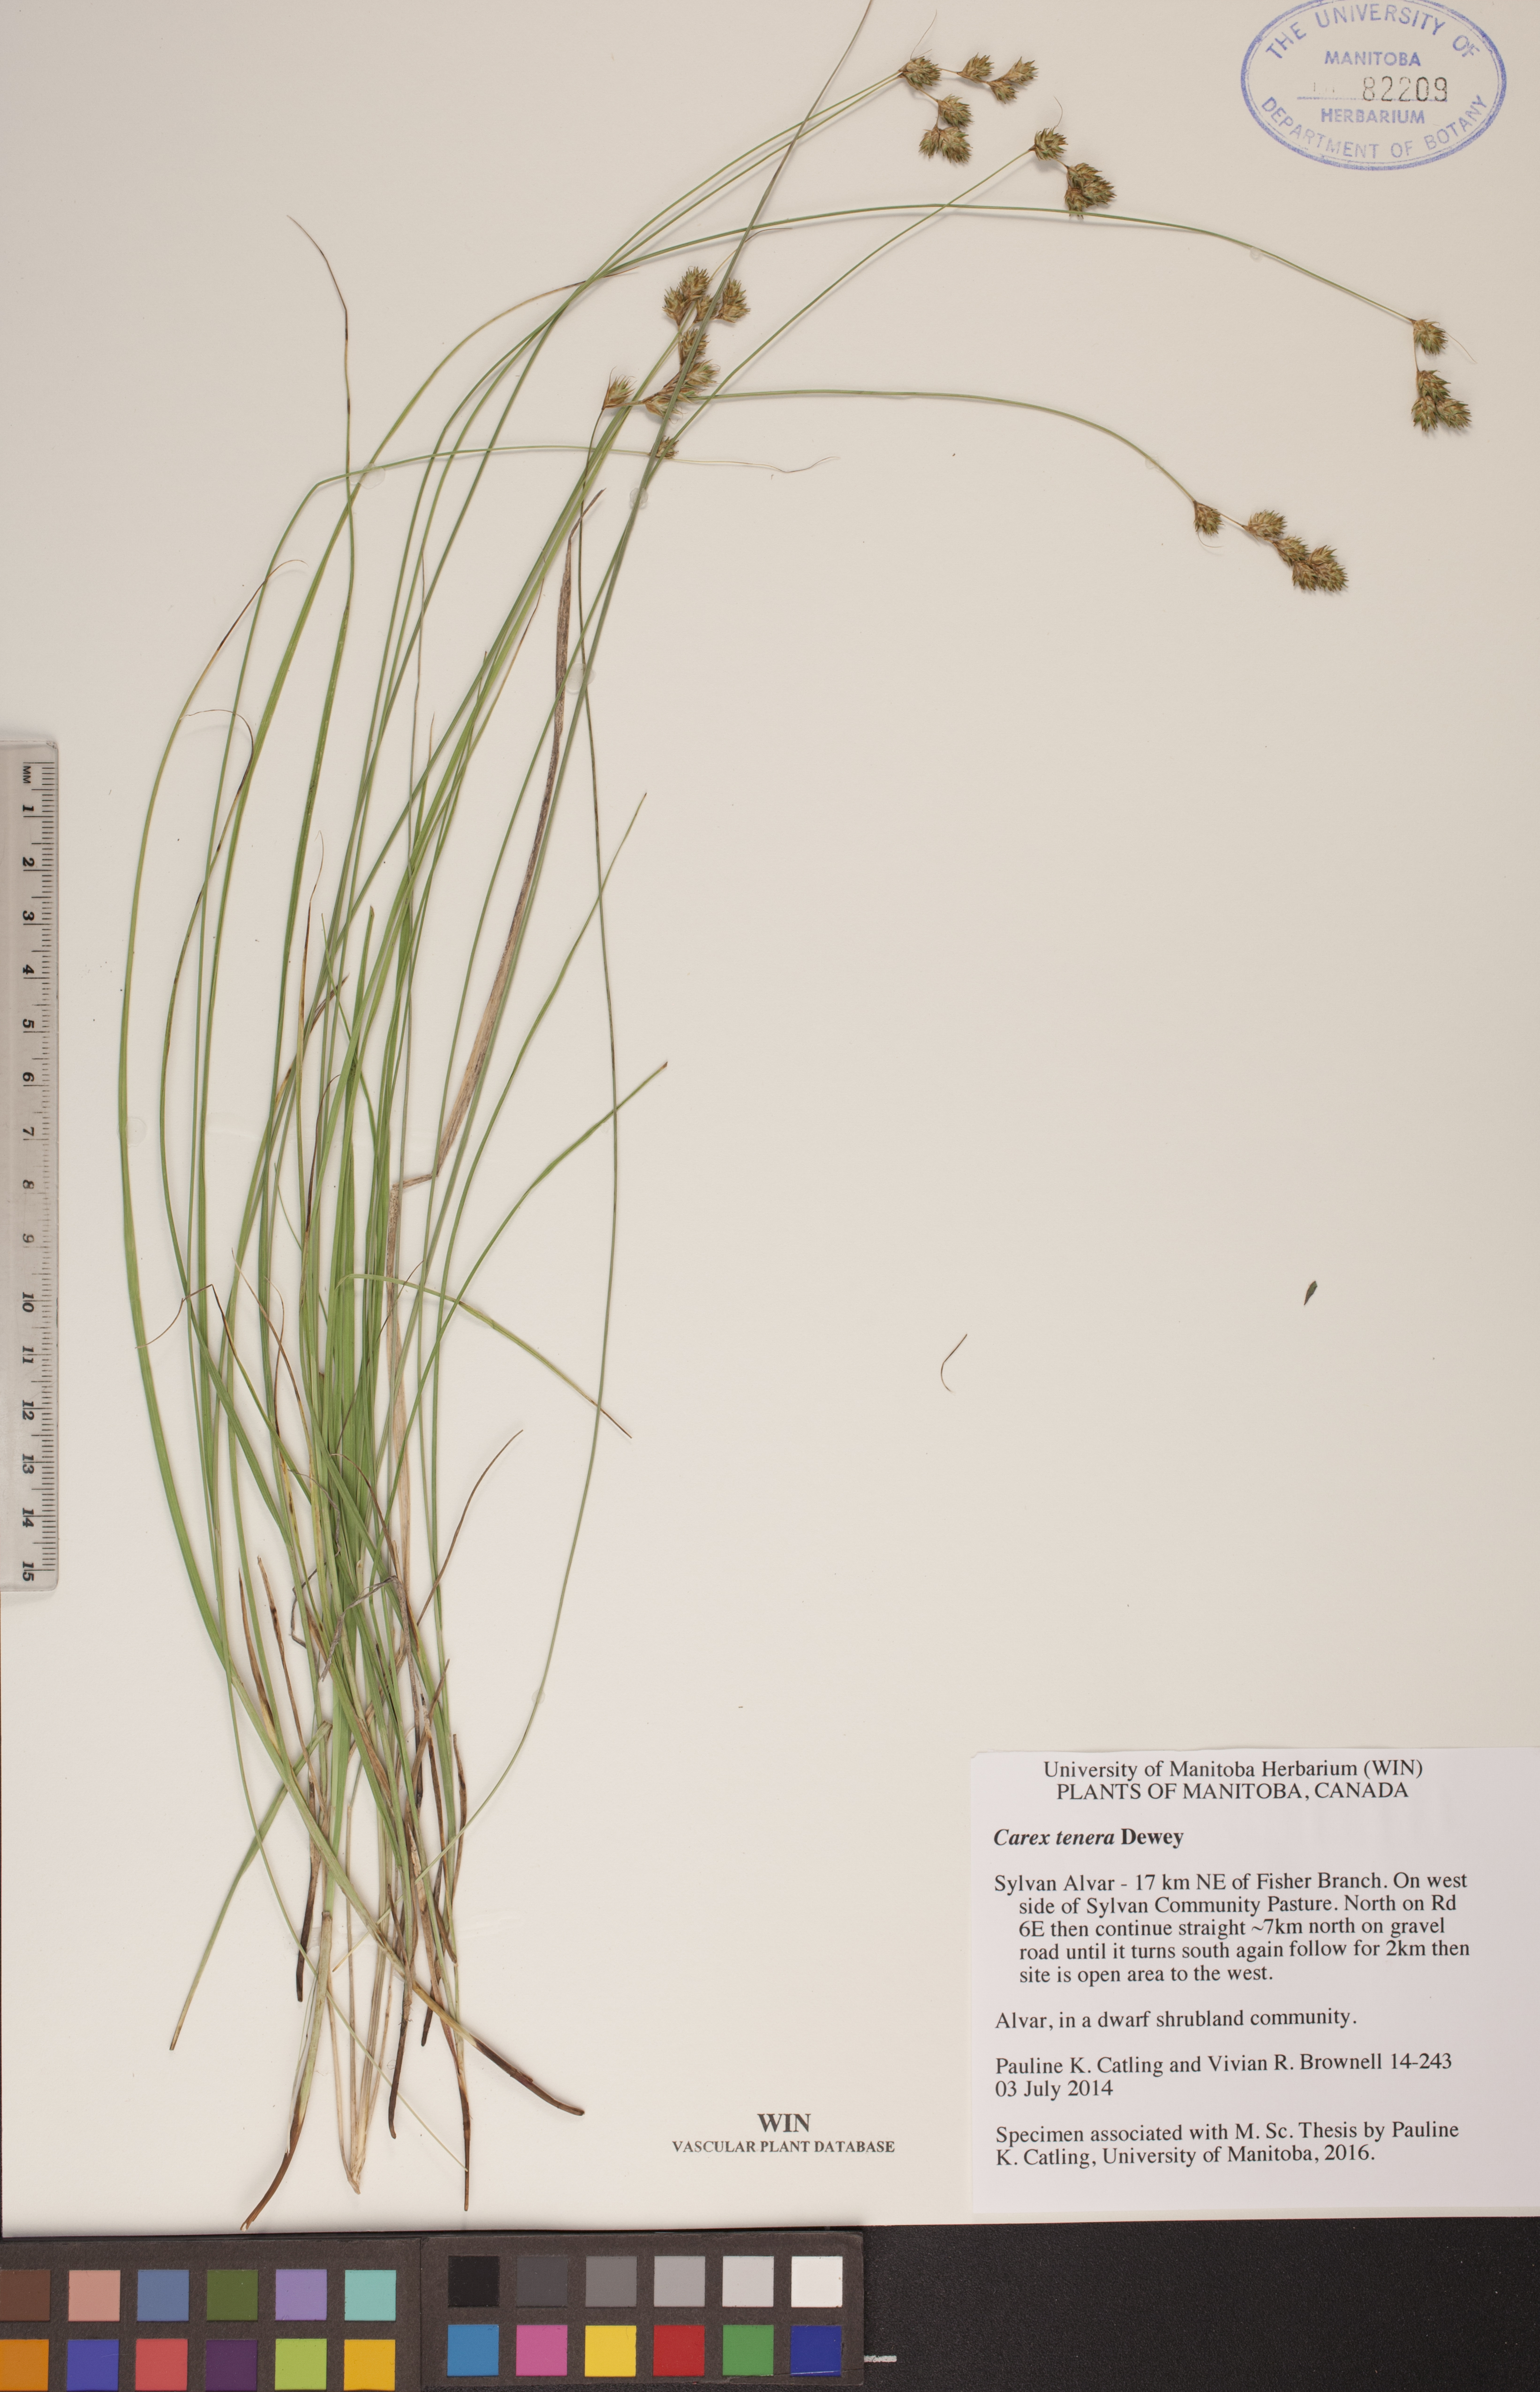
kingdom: Plantae
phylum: Tracheophyta
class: Liliopsida
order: Poales
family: Cyperaceae
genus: Carex
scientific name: Carex tenera
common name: Broad-fruited sedge
